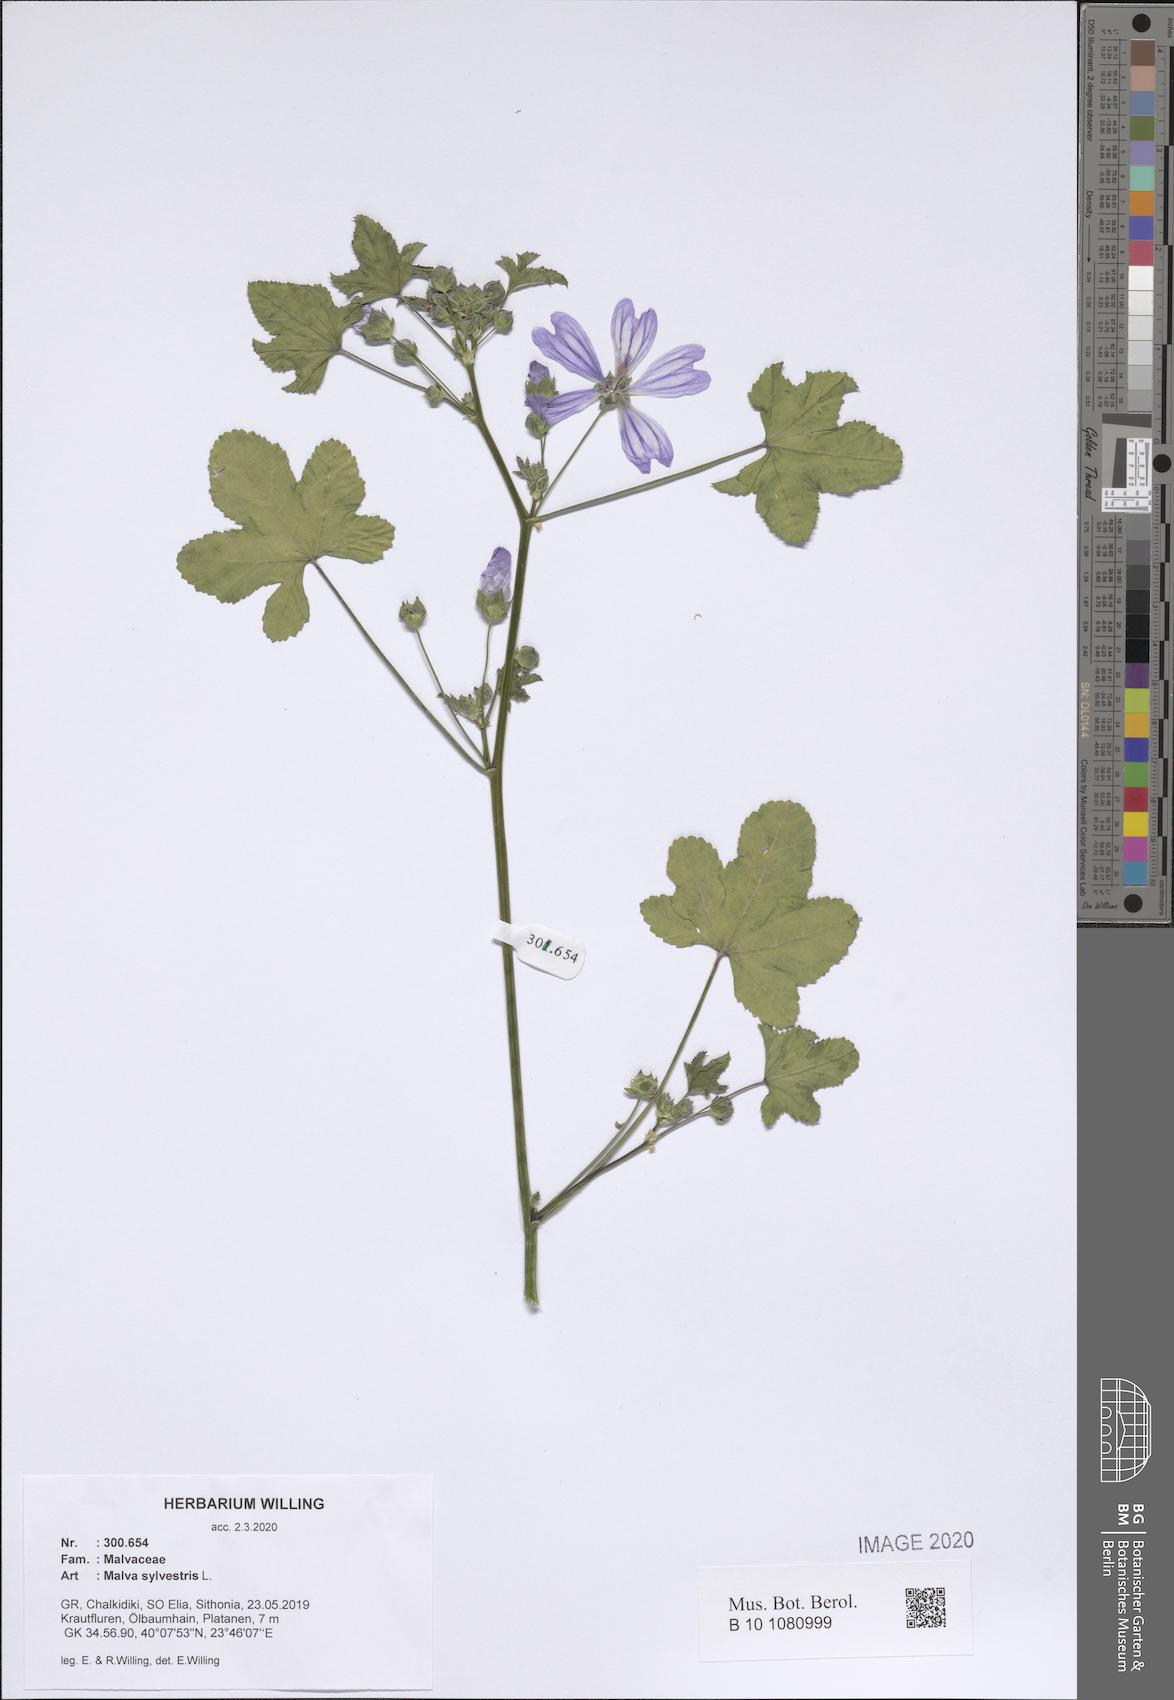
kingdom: Plantae
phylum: Tracheophyta
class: Magnoliopsida
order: Malvales
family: Malvaceae
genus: Malva
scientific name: Malva sylvestris
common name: Common mallow
